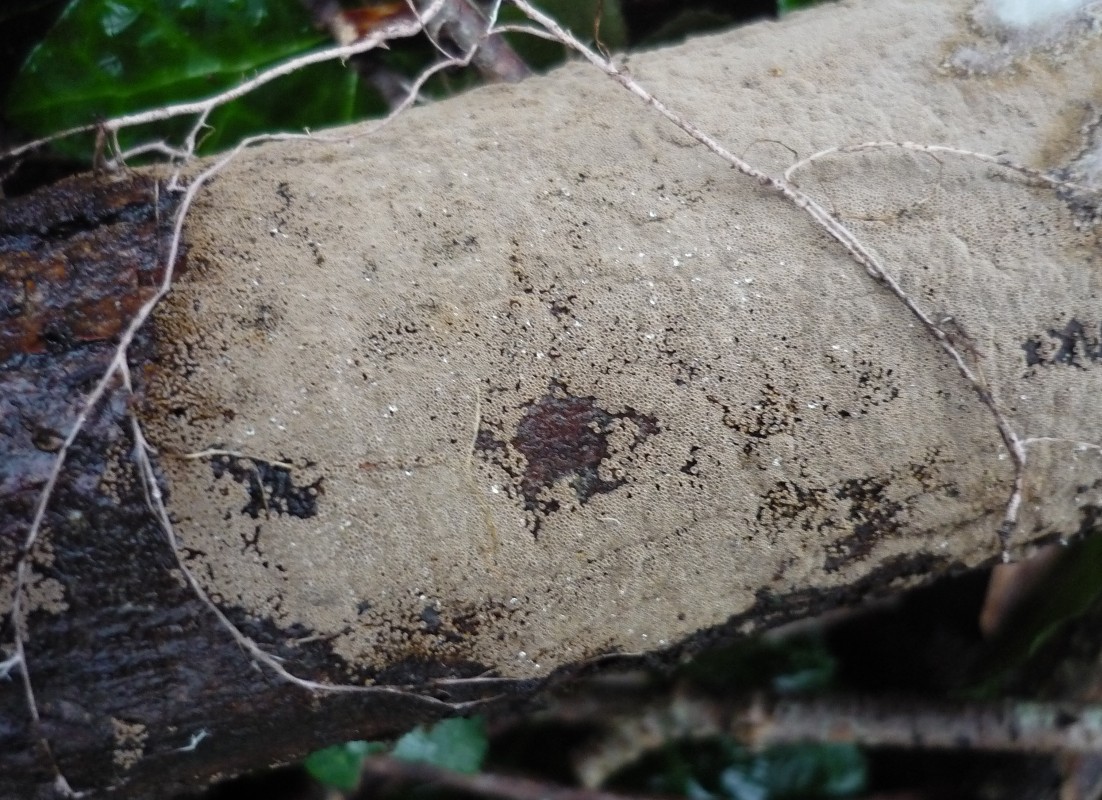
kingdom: Fungi
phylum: Basidiomycota
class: Agaricomycetes
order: Agaricales
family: Niaceae
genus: Merismodes
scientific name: Merismodes anomala
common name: almindelig læderskål
